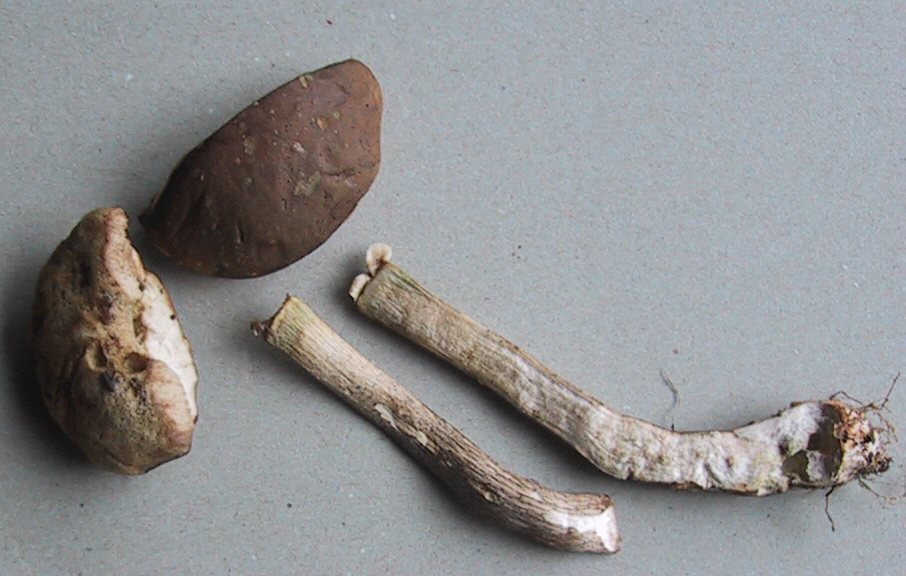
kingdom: Fungi
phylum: Basidiomycota
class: Agaricomycetes
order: Boletales
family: Boletaceae
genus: Leccinum
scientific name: Leccinum cyaneobasileucum
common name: almindelig skælrørhat
